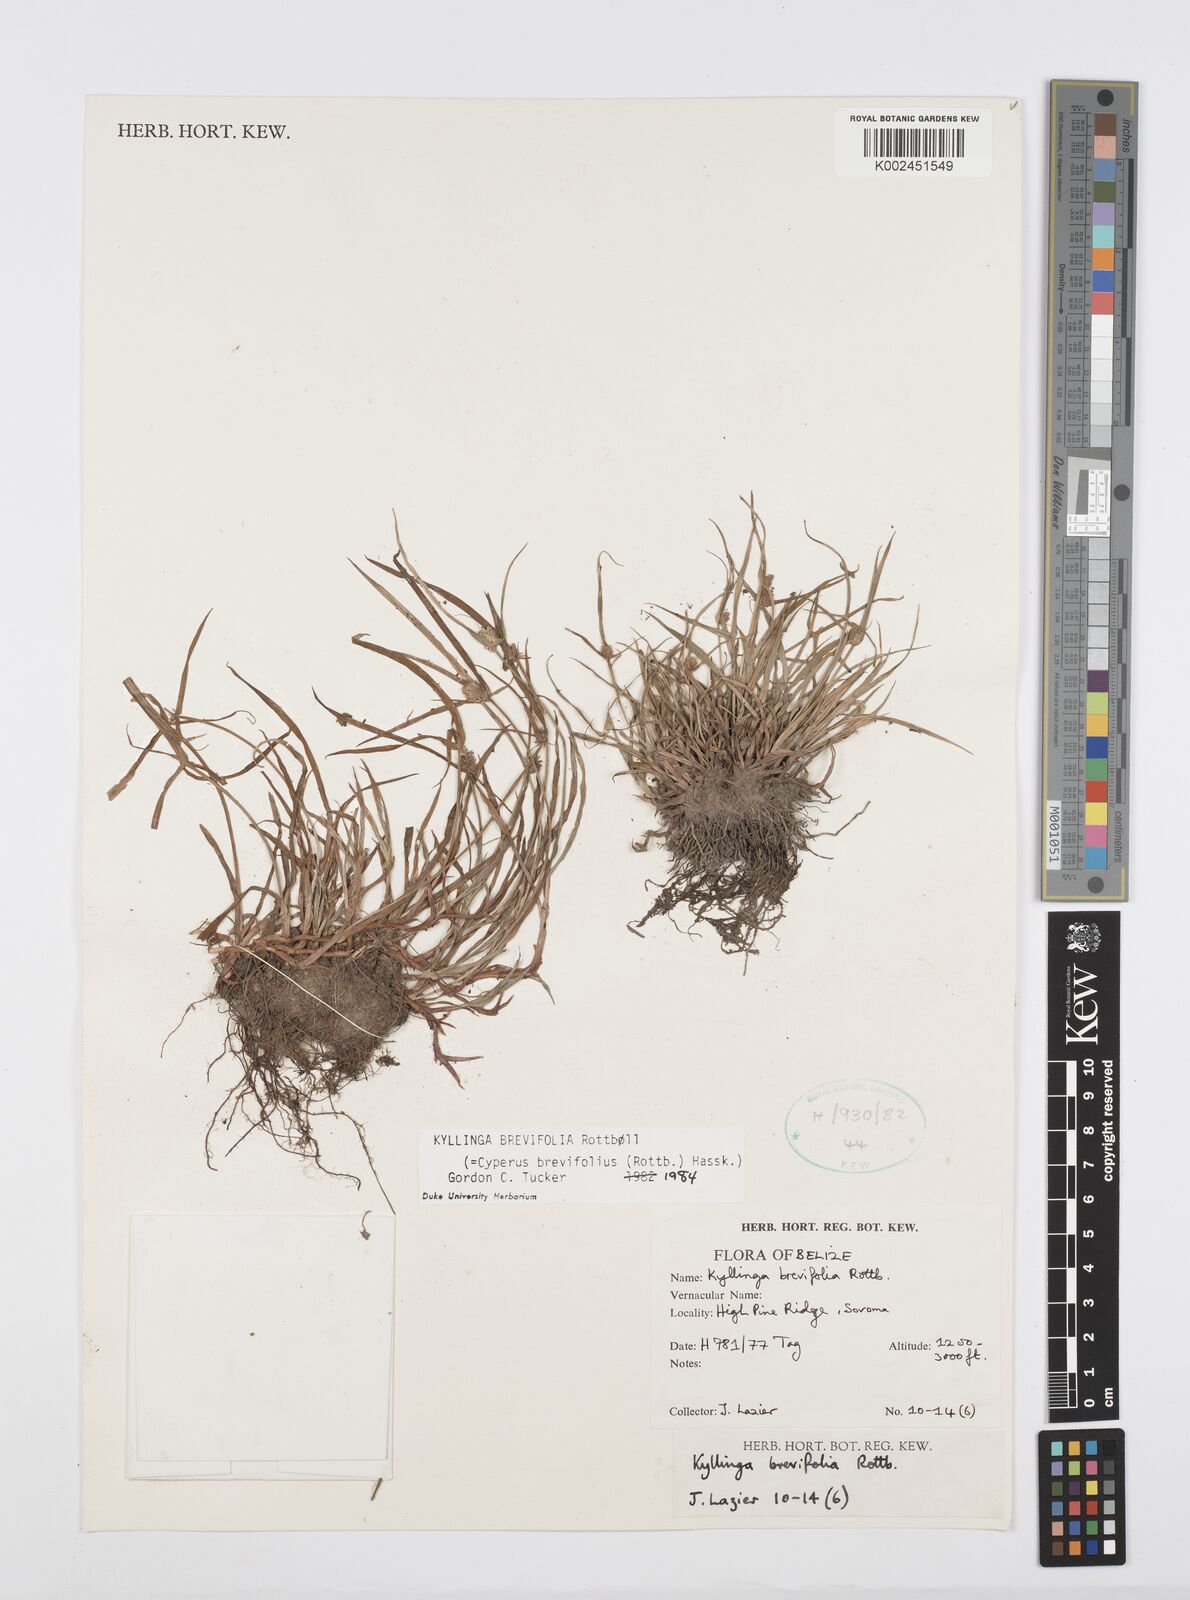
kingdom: Plantae
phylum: Tracheophyta
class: Liliopsida
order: Poales
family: Cyperaceae
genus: Cyperus
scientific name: Cyperus brevifolius
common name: Globe kyllinga
